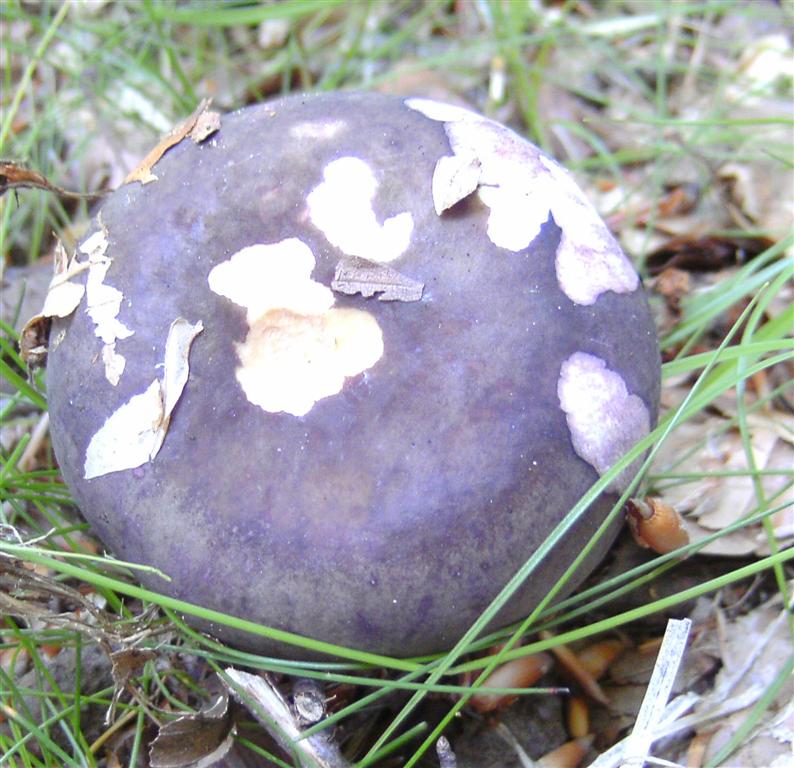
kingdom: Fungi
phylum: Basidiomycota
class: Agaricomycetes
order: Russulales
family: Russulaceae
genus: Russula
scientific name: Russula
